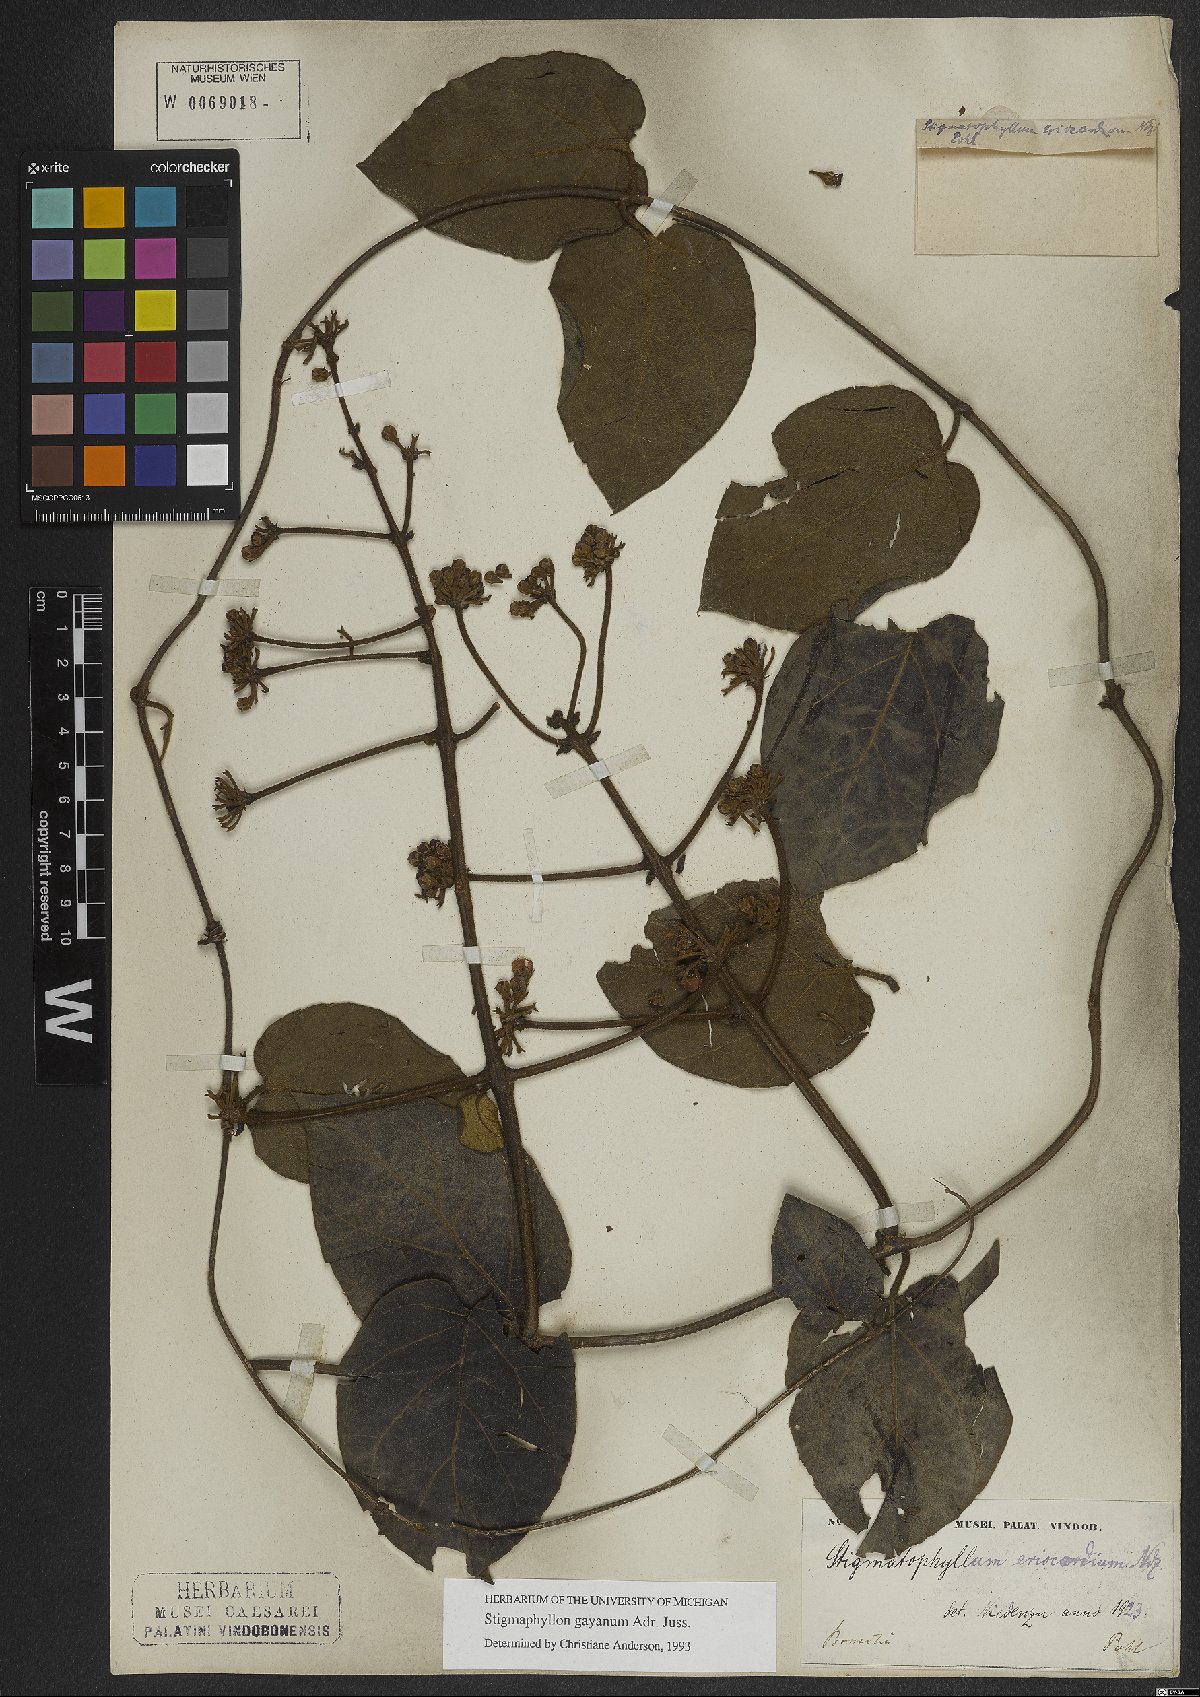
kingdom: Plantae
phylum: Tracheophyta
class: Magnoliopsida
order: Malpighiales
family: Malpighiaceae
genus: Stigmaphyllon
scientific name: Stigmaphyllon gayanum
